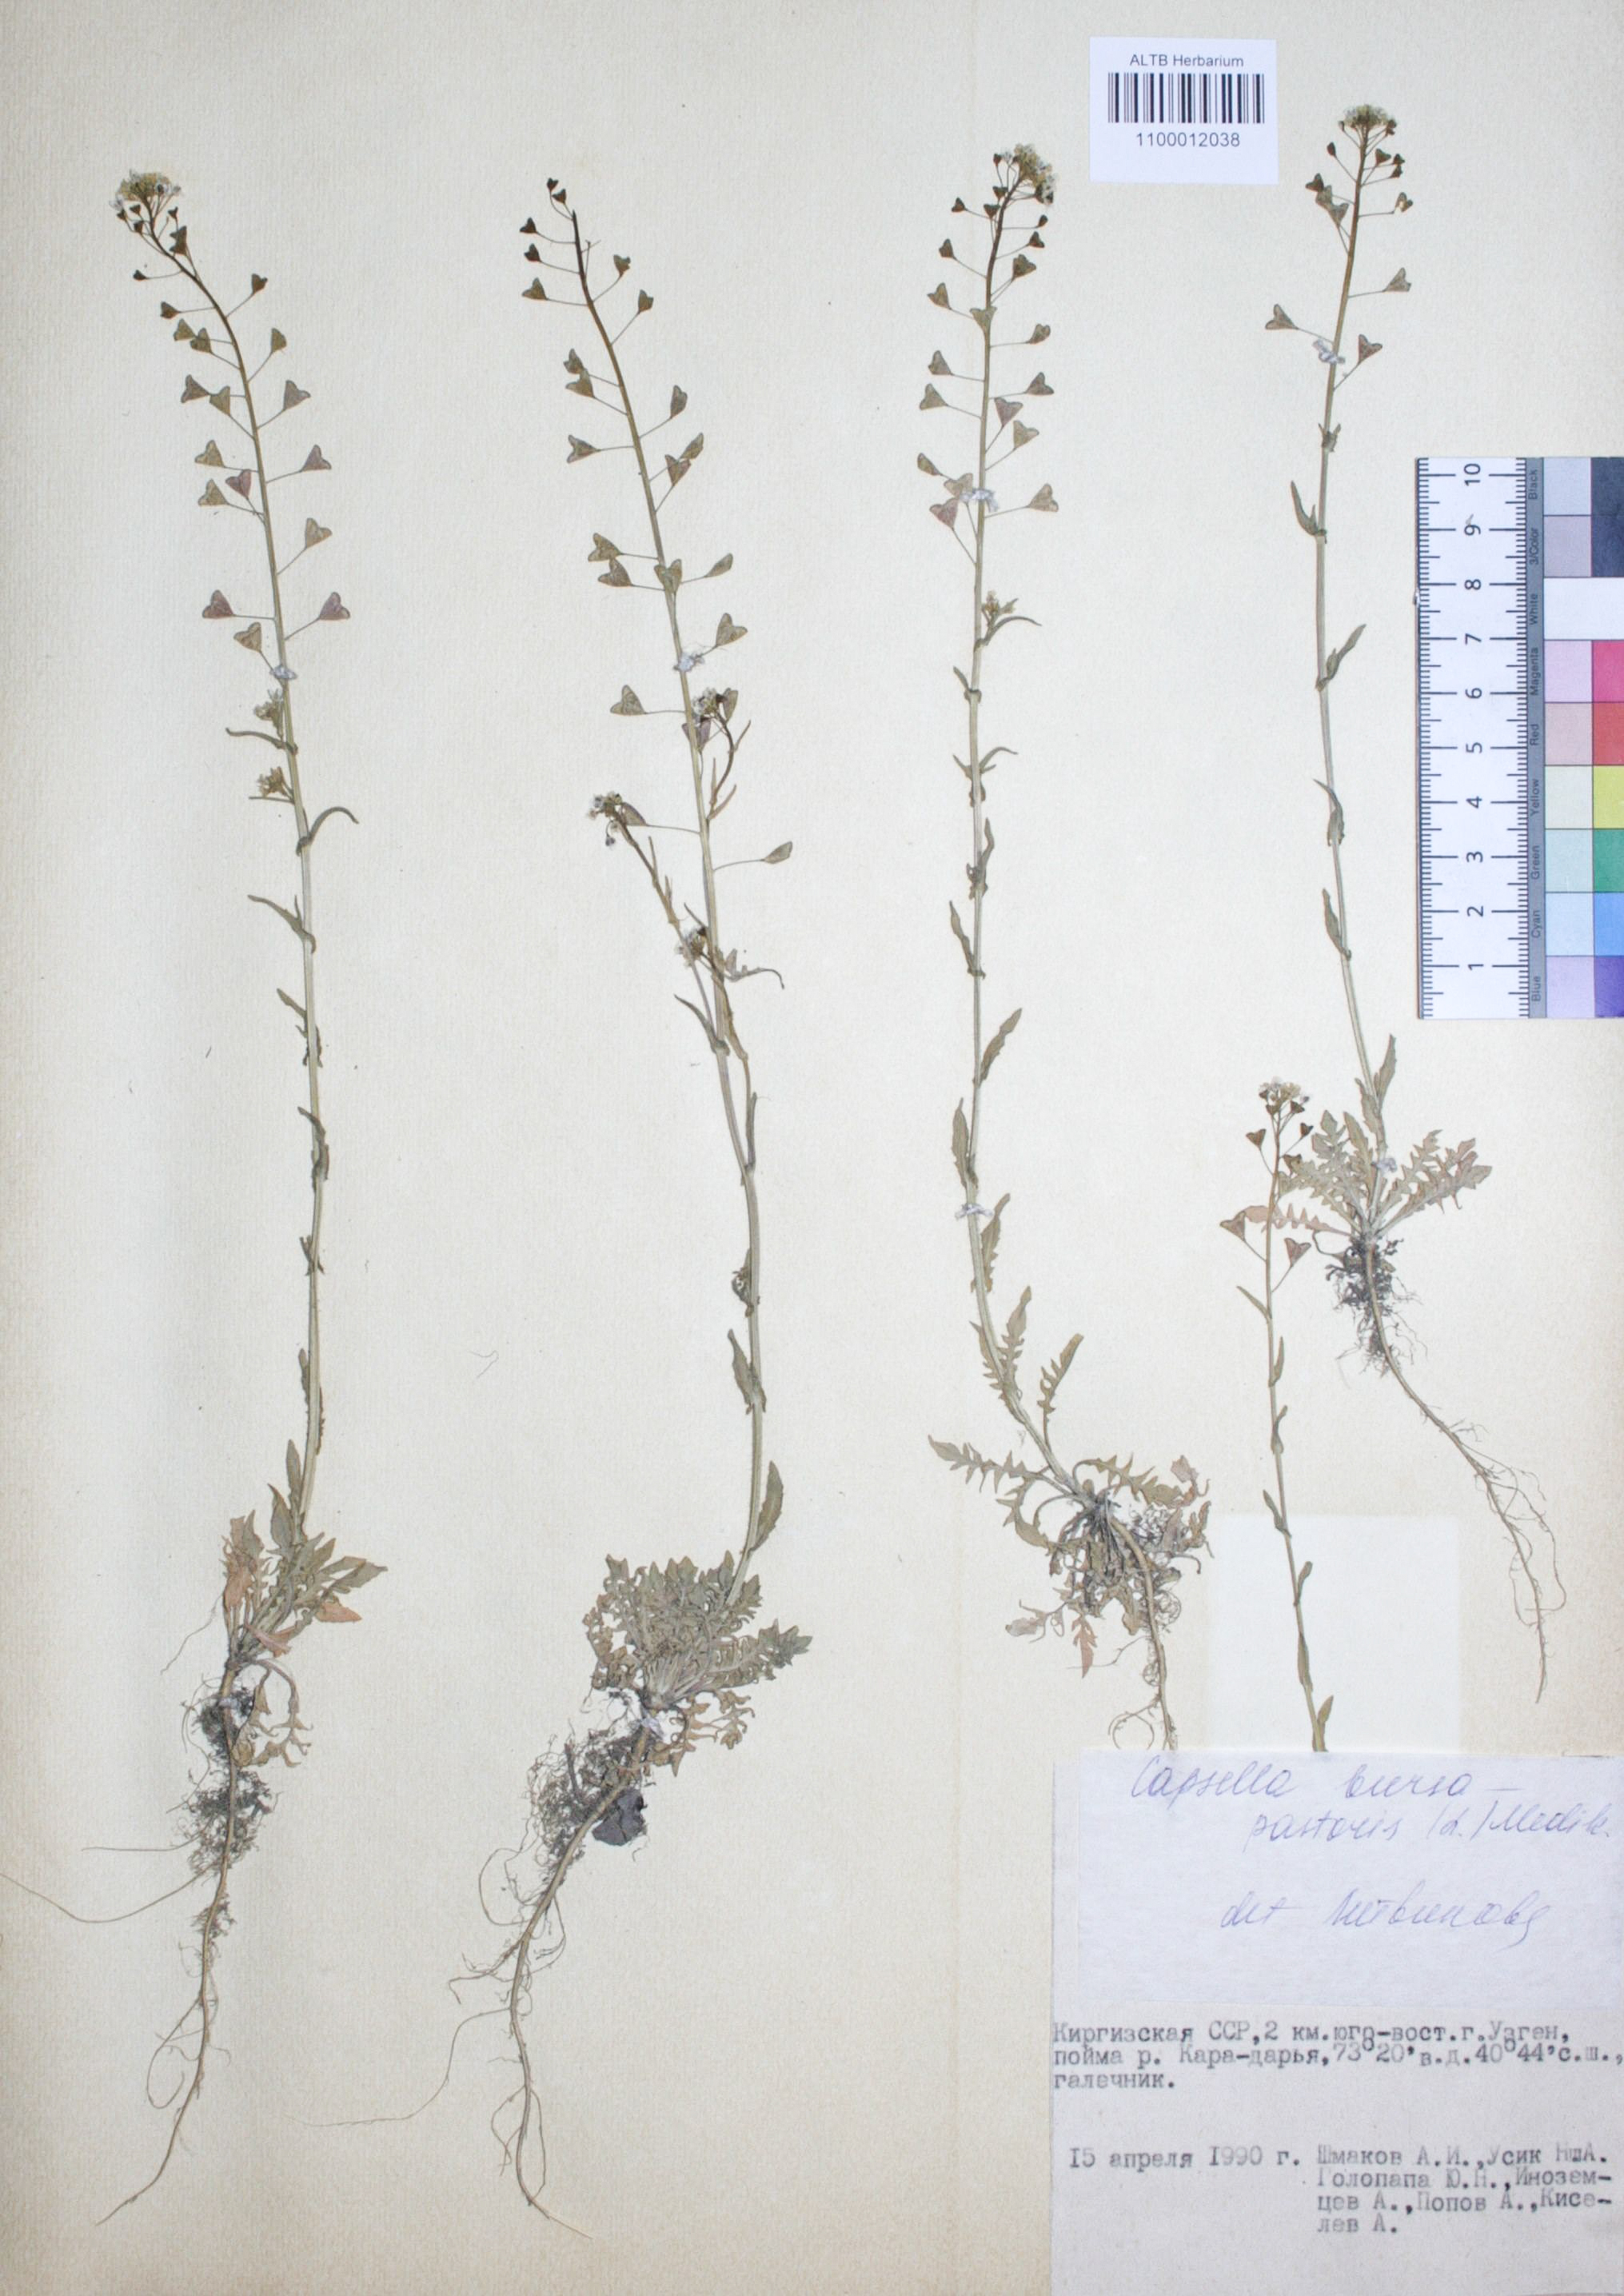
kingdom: Plantae
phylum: Tracheophyta
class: Magnoliopsida
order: Brassicales
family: Brassicaceae
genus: Capsella
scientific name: Capsella bursa-pastoris
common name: Shepherd's purse
